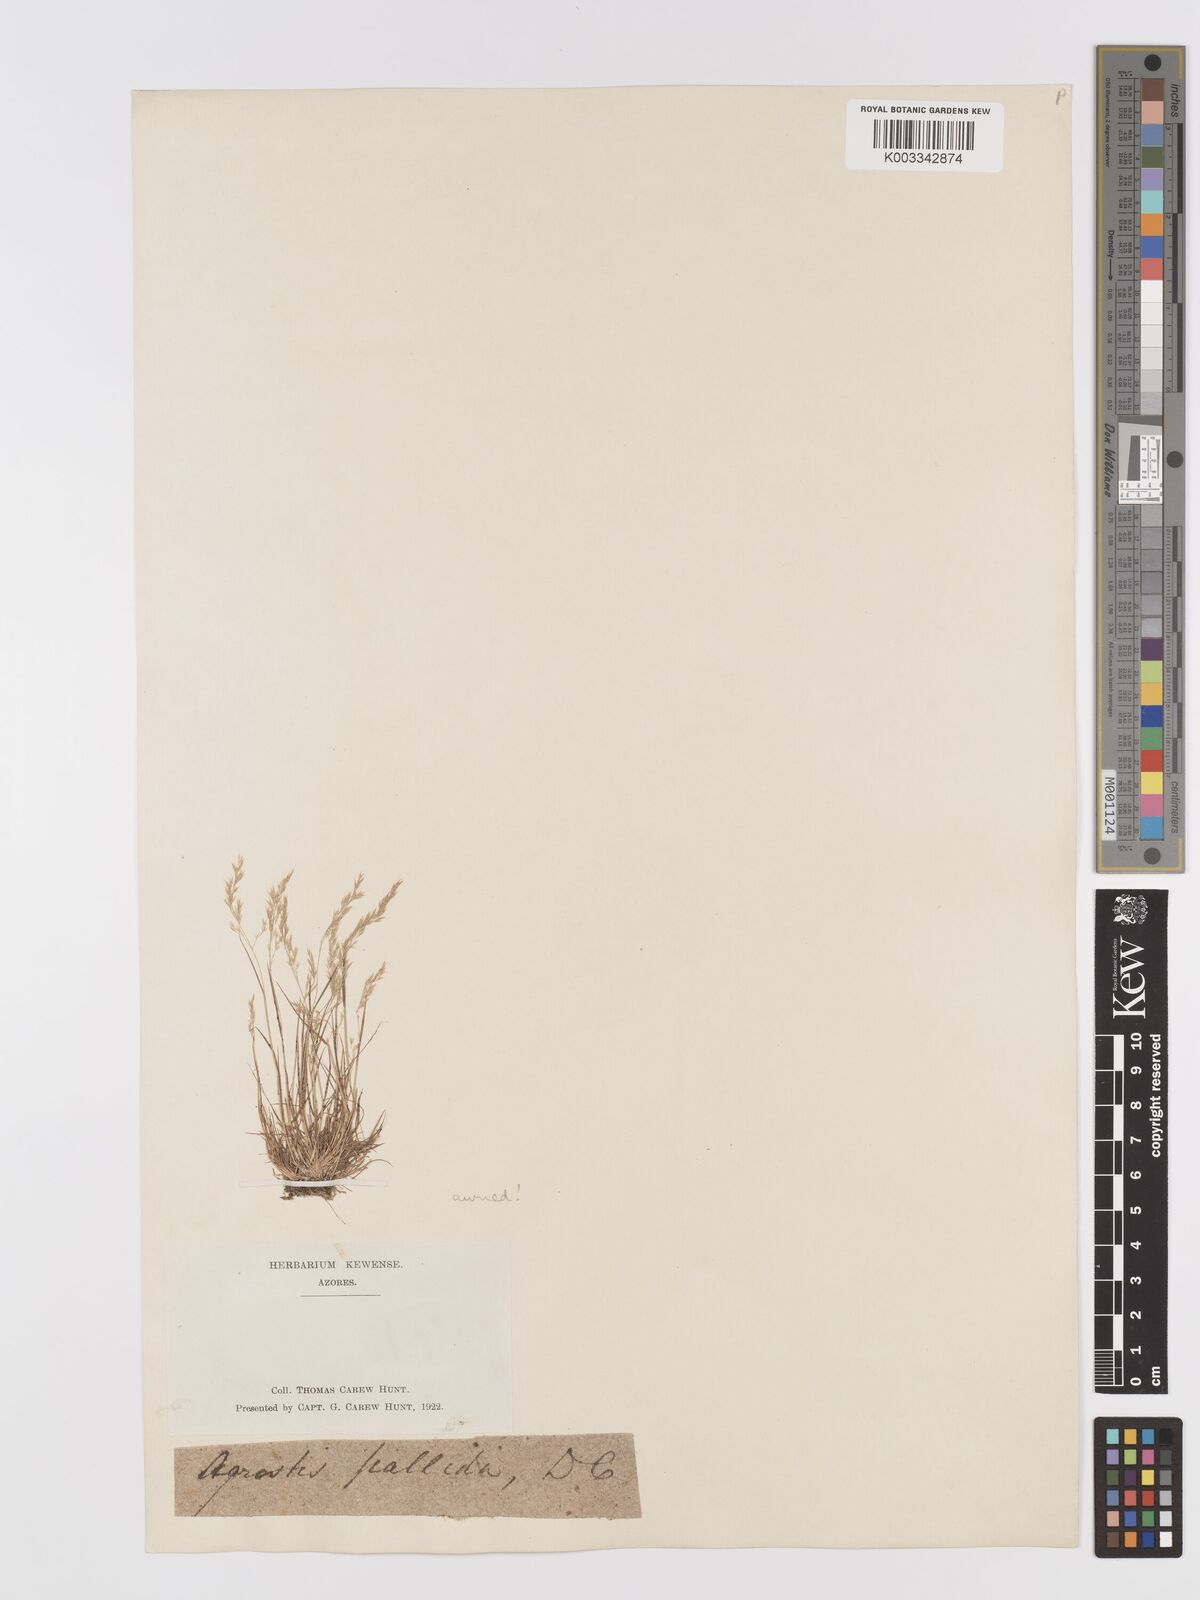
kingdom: Plantae
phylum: Tracheophyta
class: Liliopsida
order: Poales
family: Poaceae
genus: Agrostis
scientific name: Agrostis castellana
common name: Highland bent
